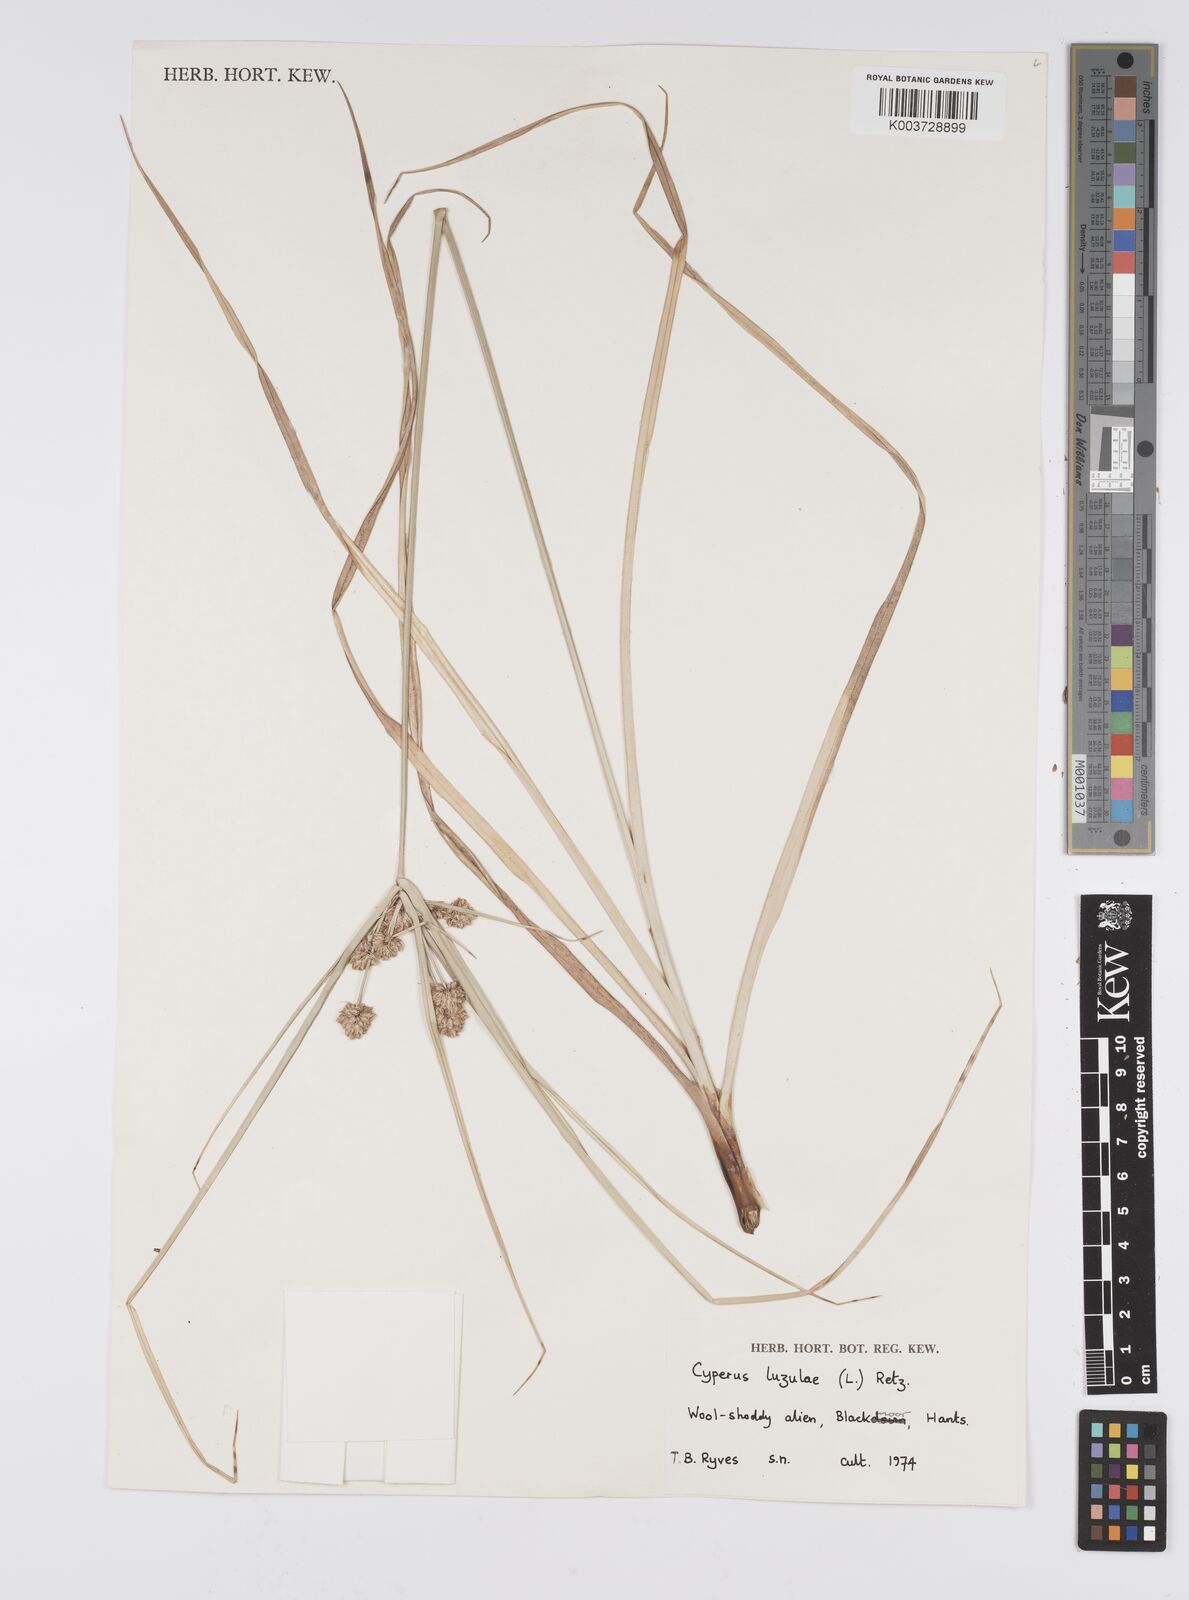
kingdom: Plantae
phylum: Tracheophyta
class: Liliopsida
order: Poales
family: Cyperaceae
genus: Cyperus
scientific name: Cyperus luzulae
